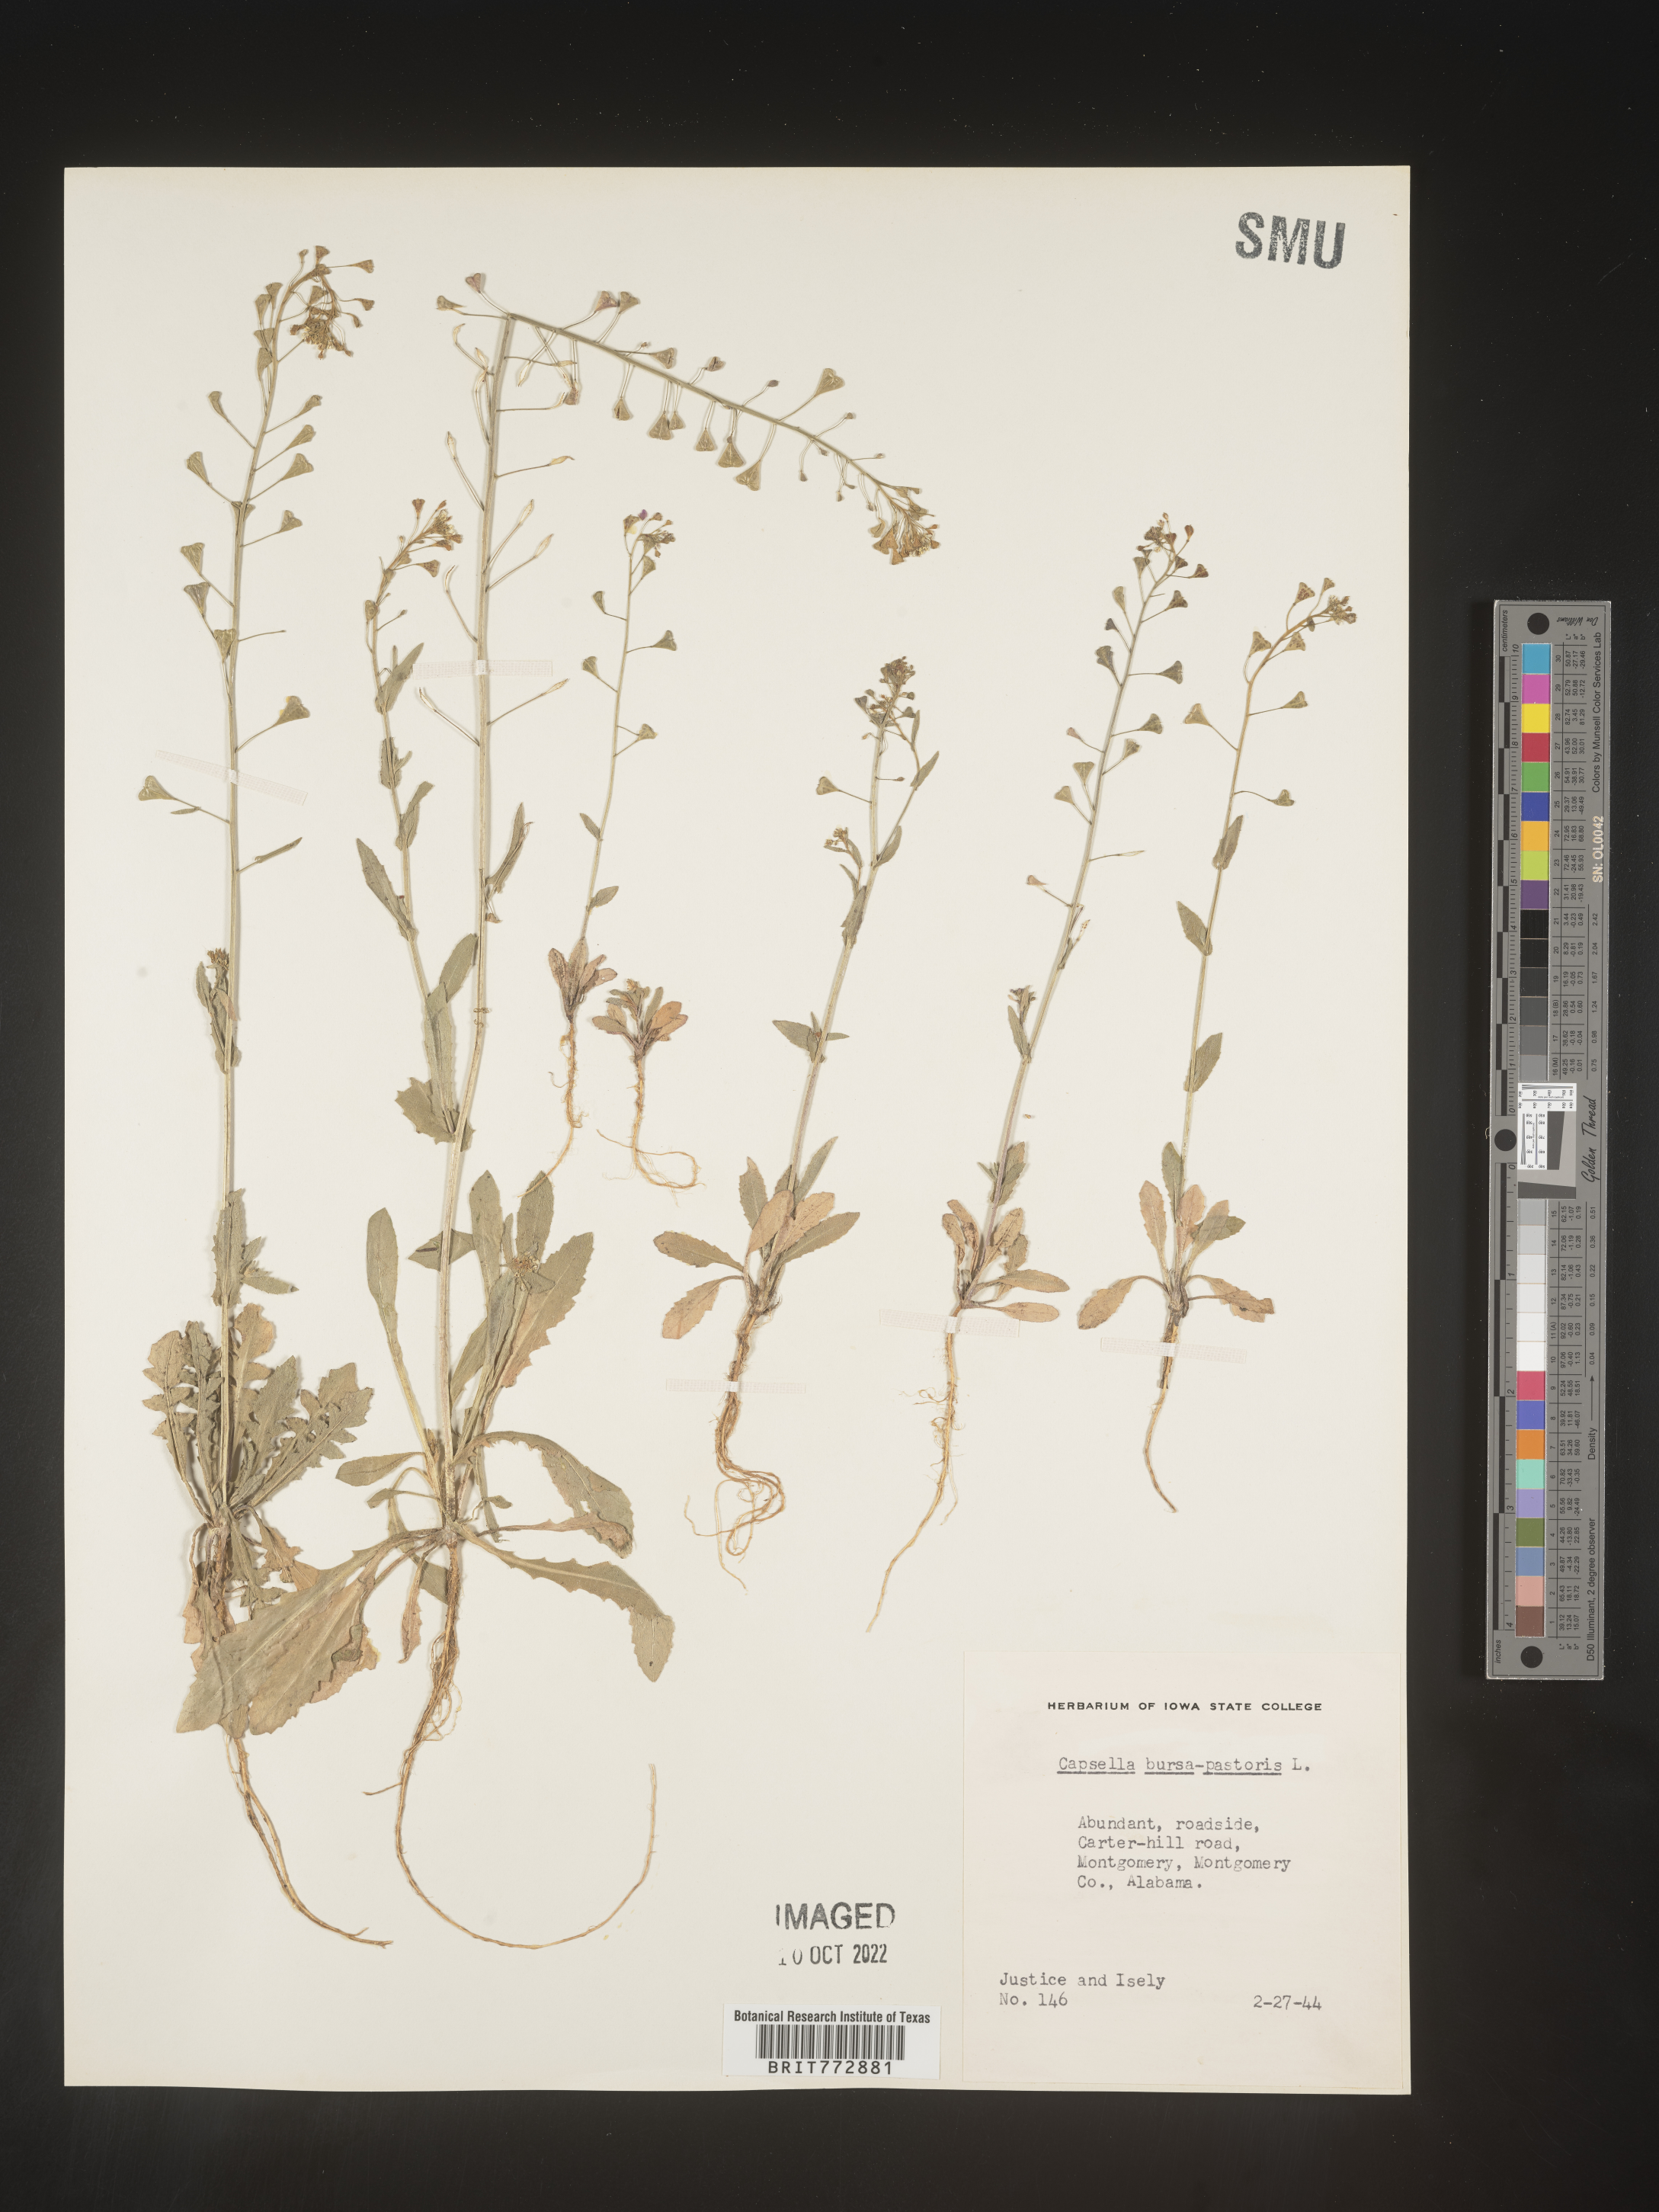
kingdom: Plantae
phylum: Tracheophyta
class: Magnoliopsida
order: Brassicales
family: Brassicaceae
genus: Capsella
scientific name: Capsella bursa-pastoris
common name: Shepherd's purse
